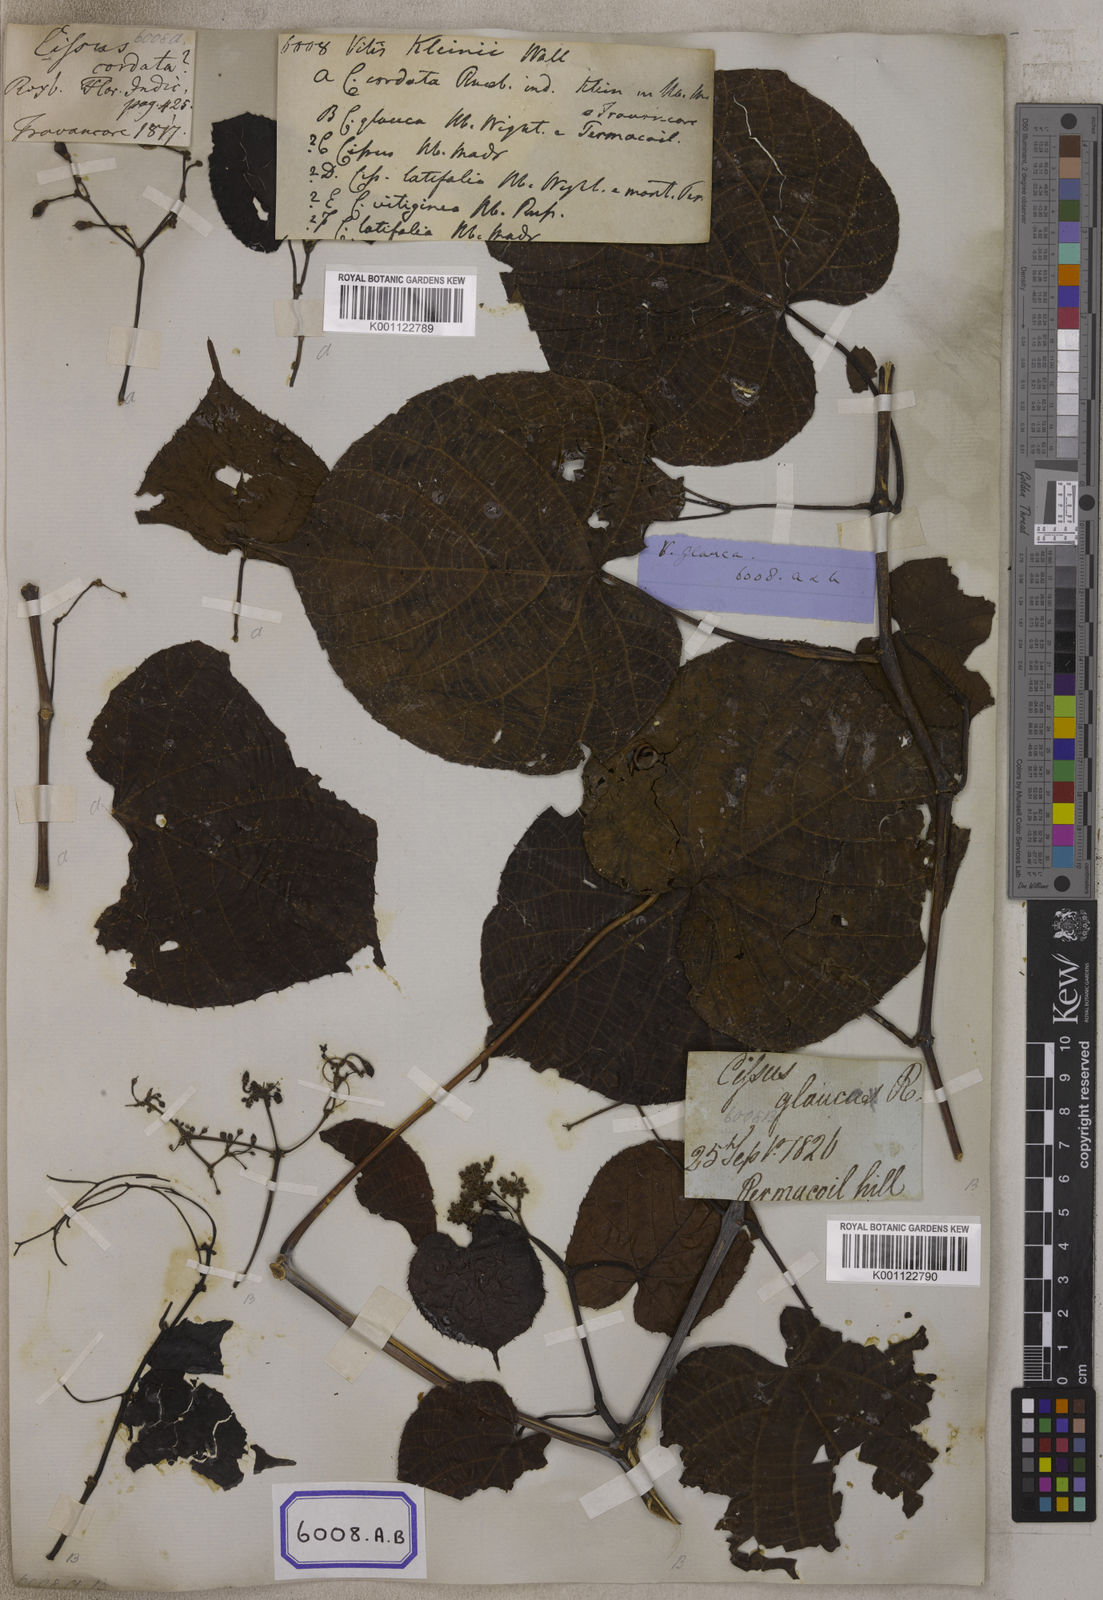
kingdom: Plantae
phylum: Tracheophyta
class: Magnoliopsida
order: Vitales
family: Vitaceae
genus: Cissus
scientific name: Cissus repens
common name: Cissus
